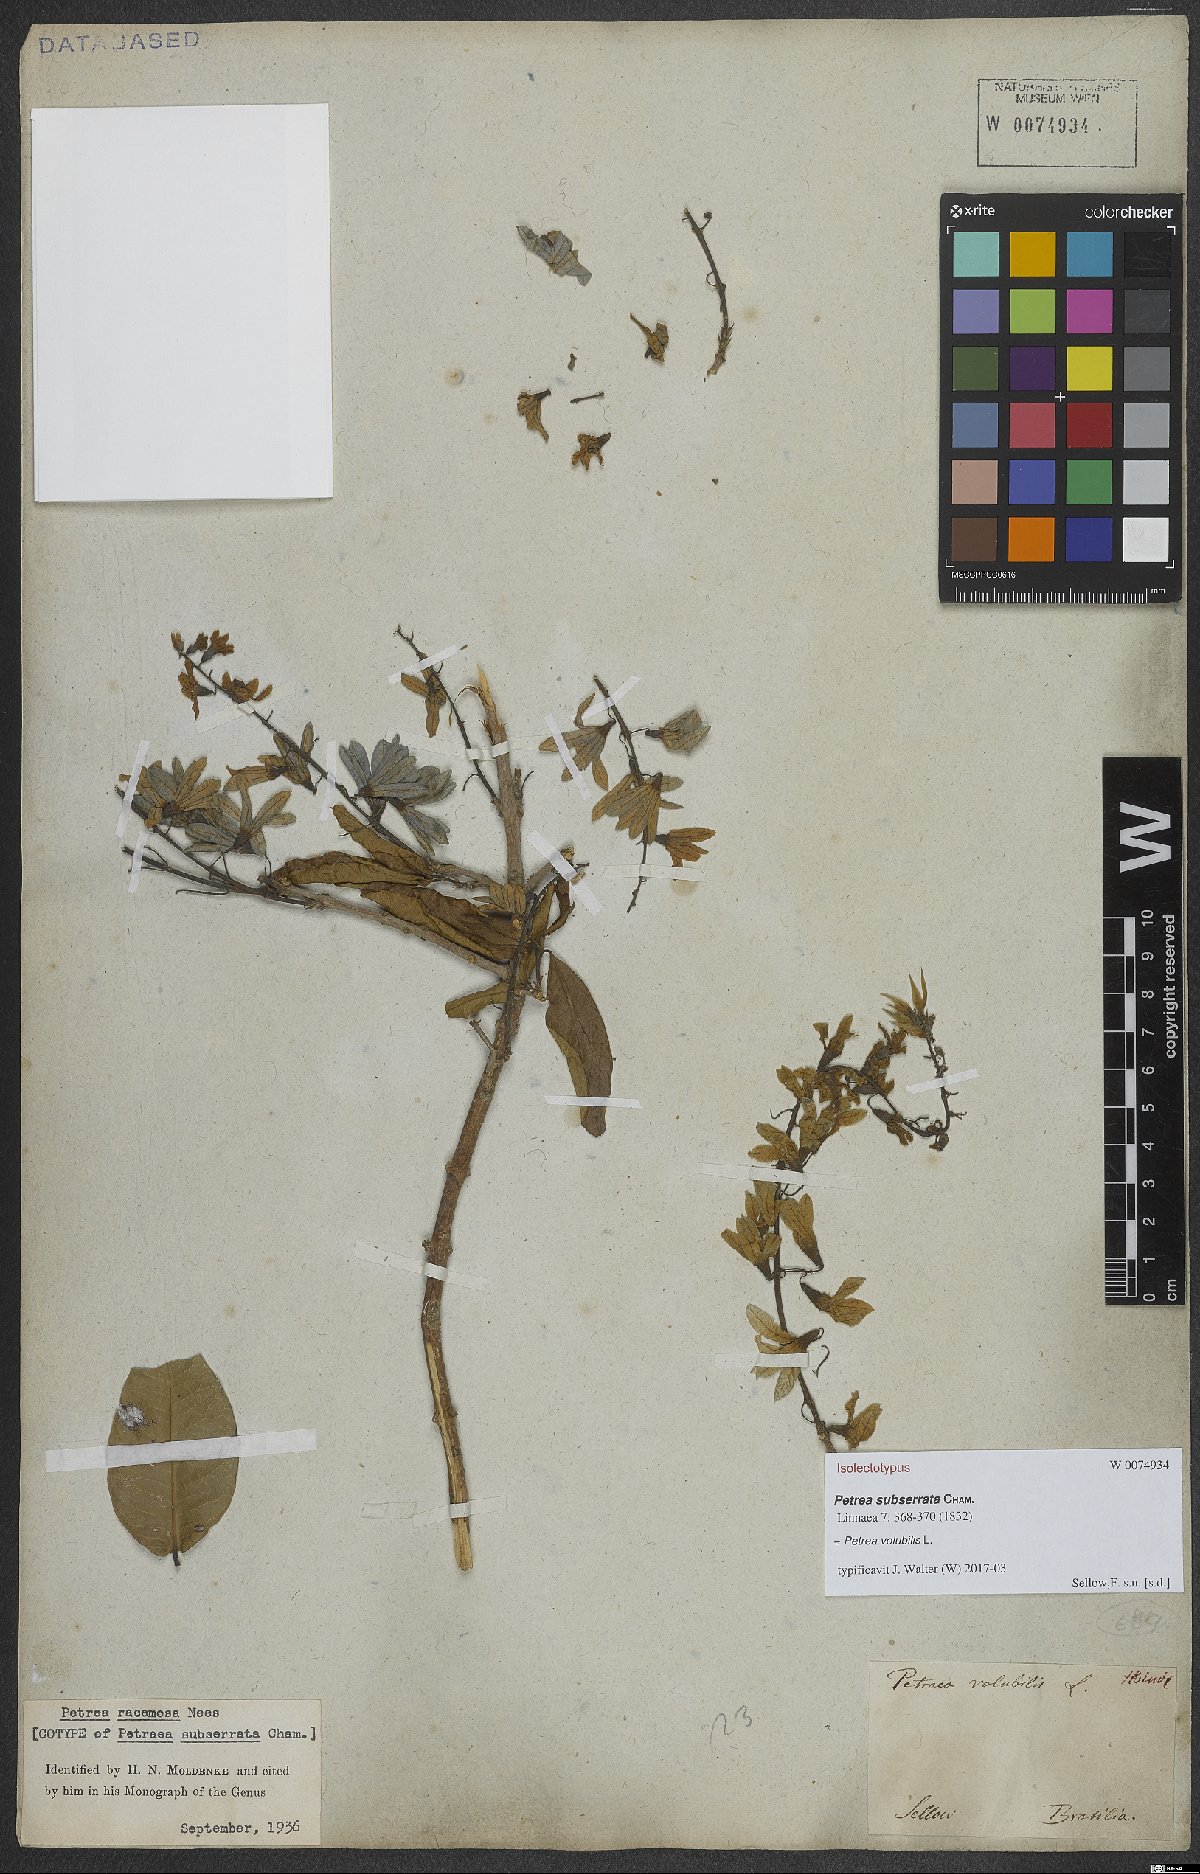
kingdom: Plantae
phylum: Tracheophyta
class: Magnoliopsida
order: Lamiales
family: Verbenaceae
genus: Petrea
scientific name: Petrea volubilis
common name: Queen's-wreath
